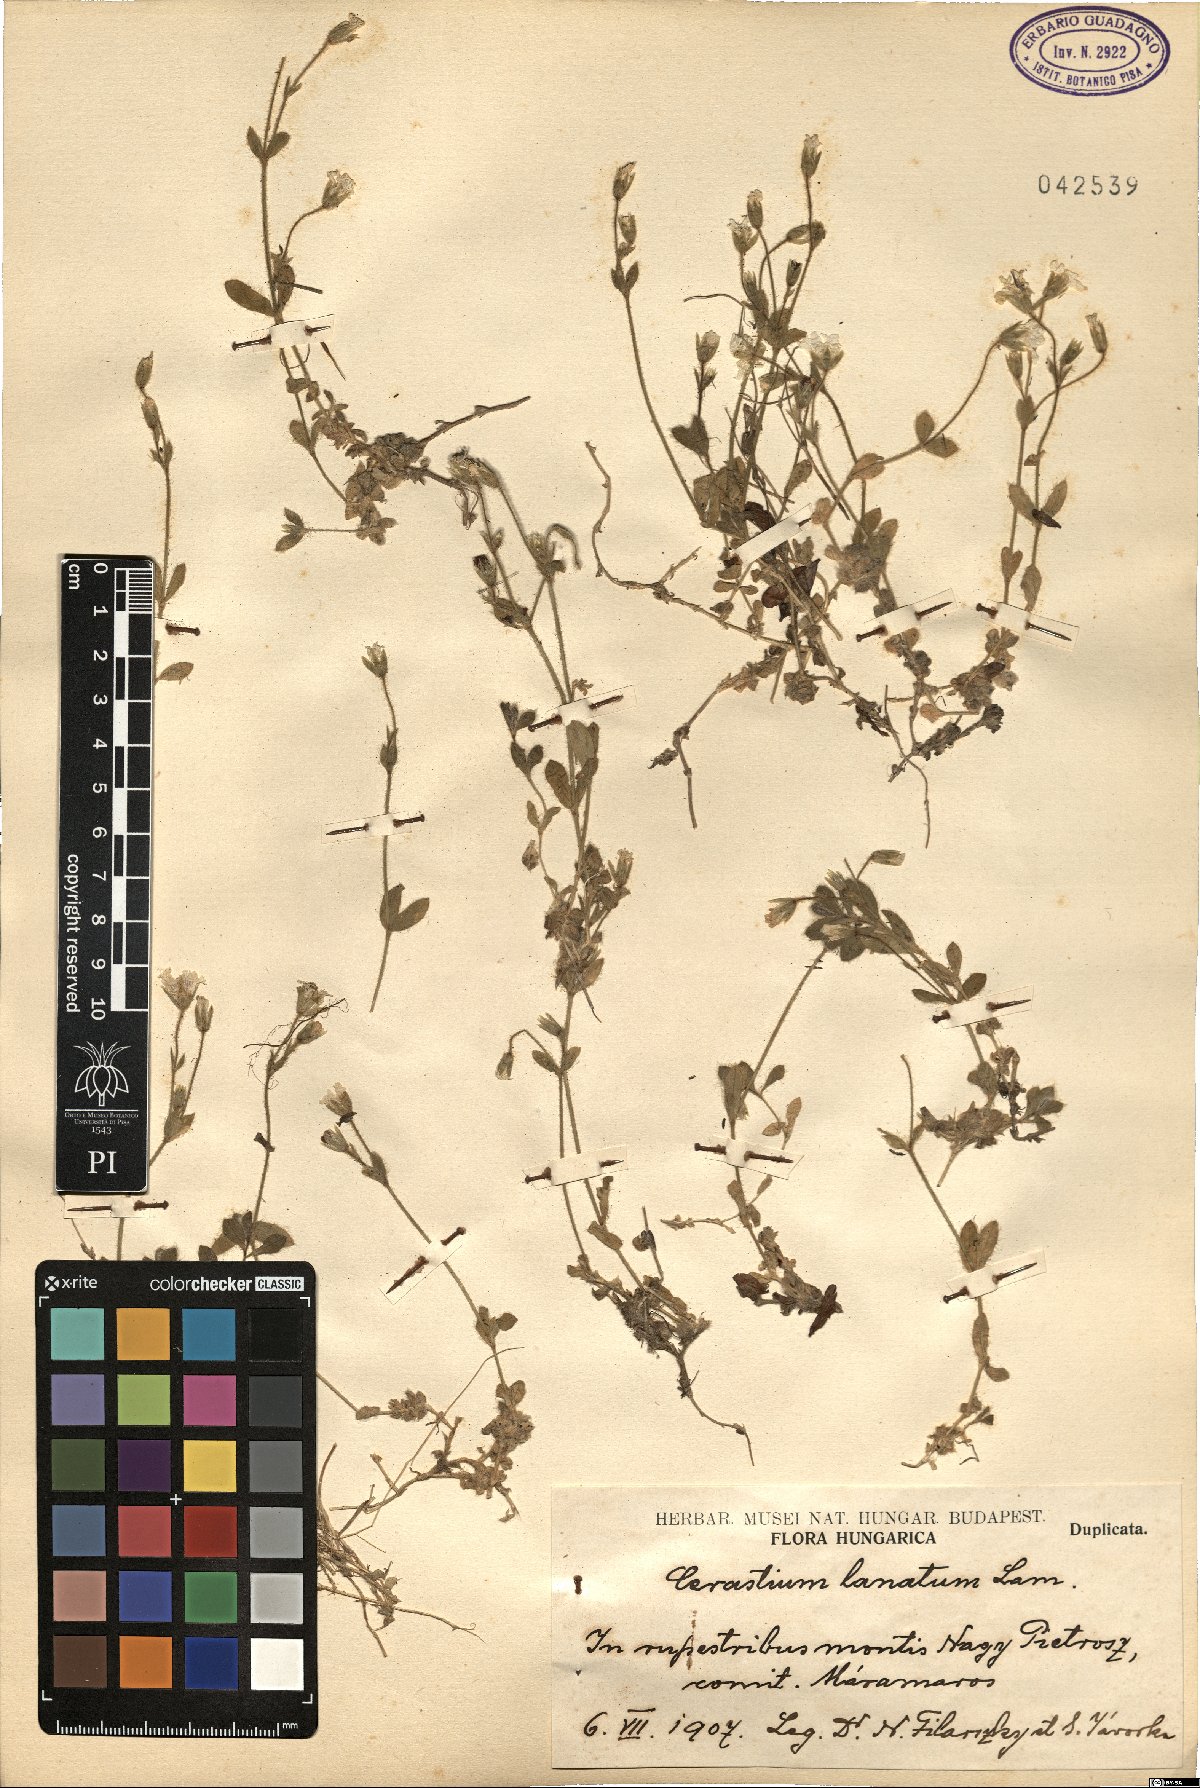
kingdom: Plantae
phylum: Tracheophyta
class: Magnoliopsida
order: Caryophyllales
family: Caryophyllaceae
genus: Cerastium
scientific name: Cerastium alpinum
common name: Alpine mouse-ear
